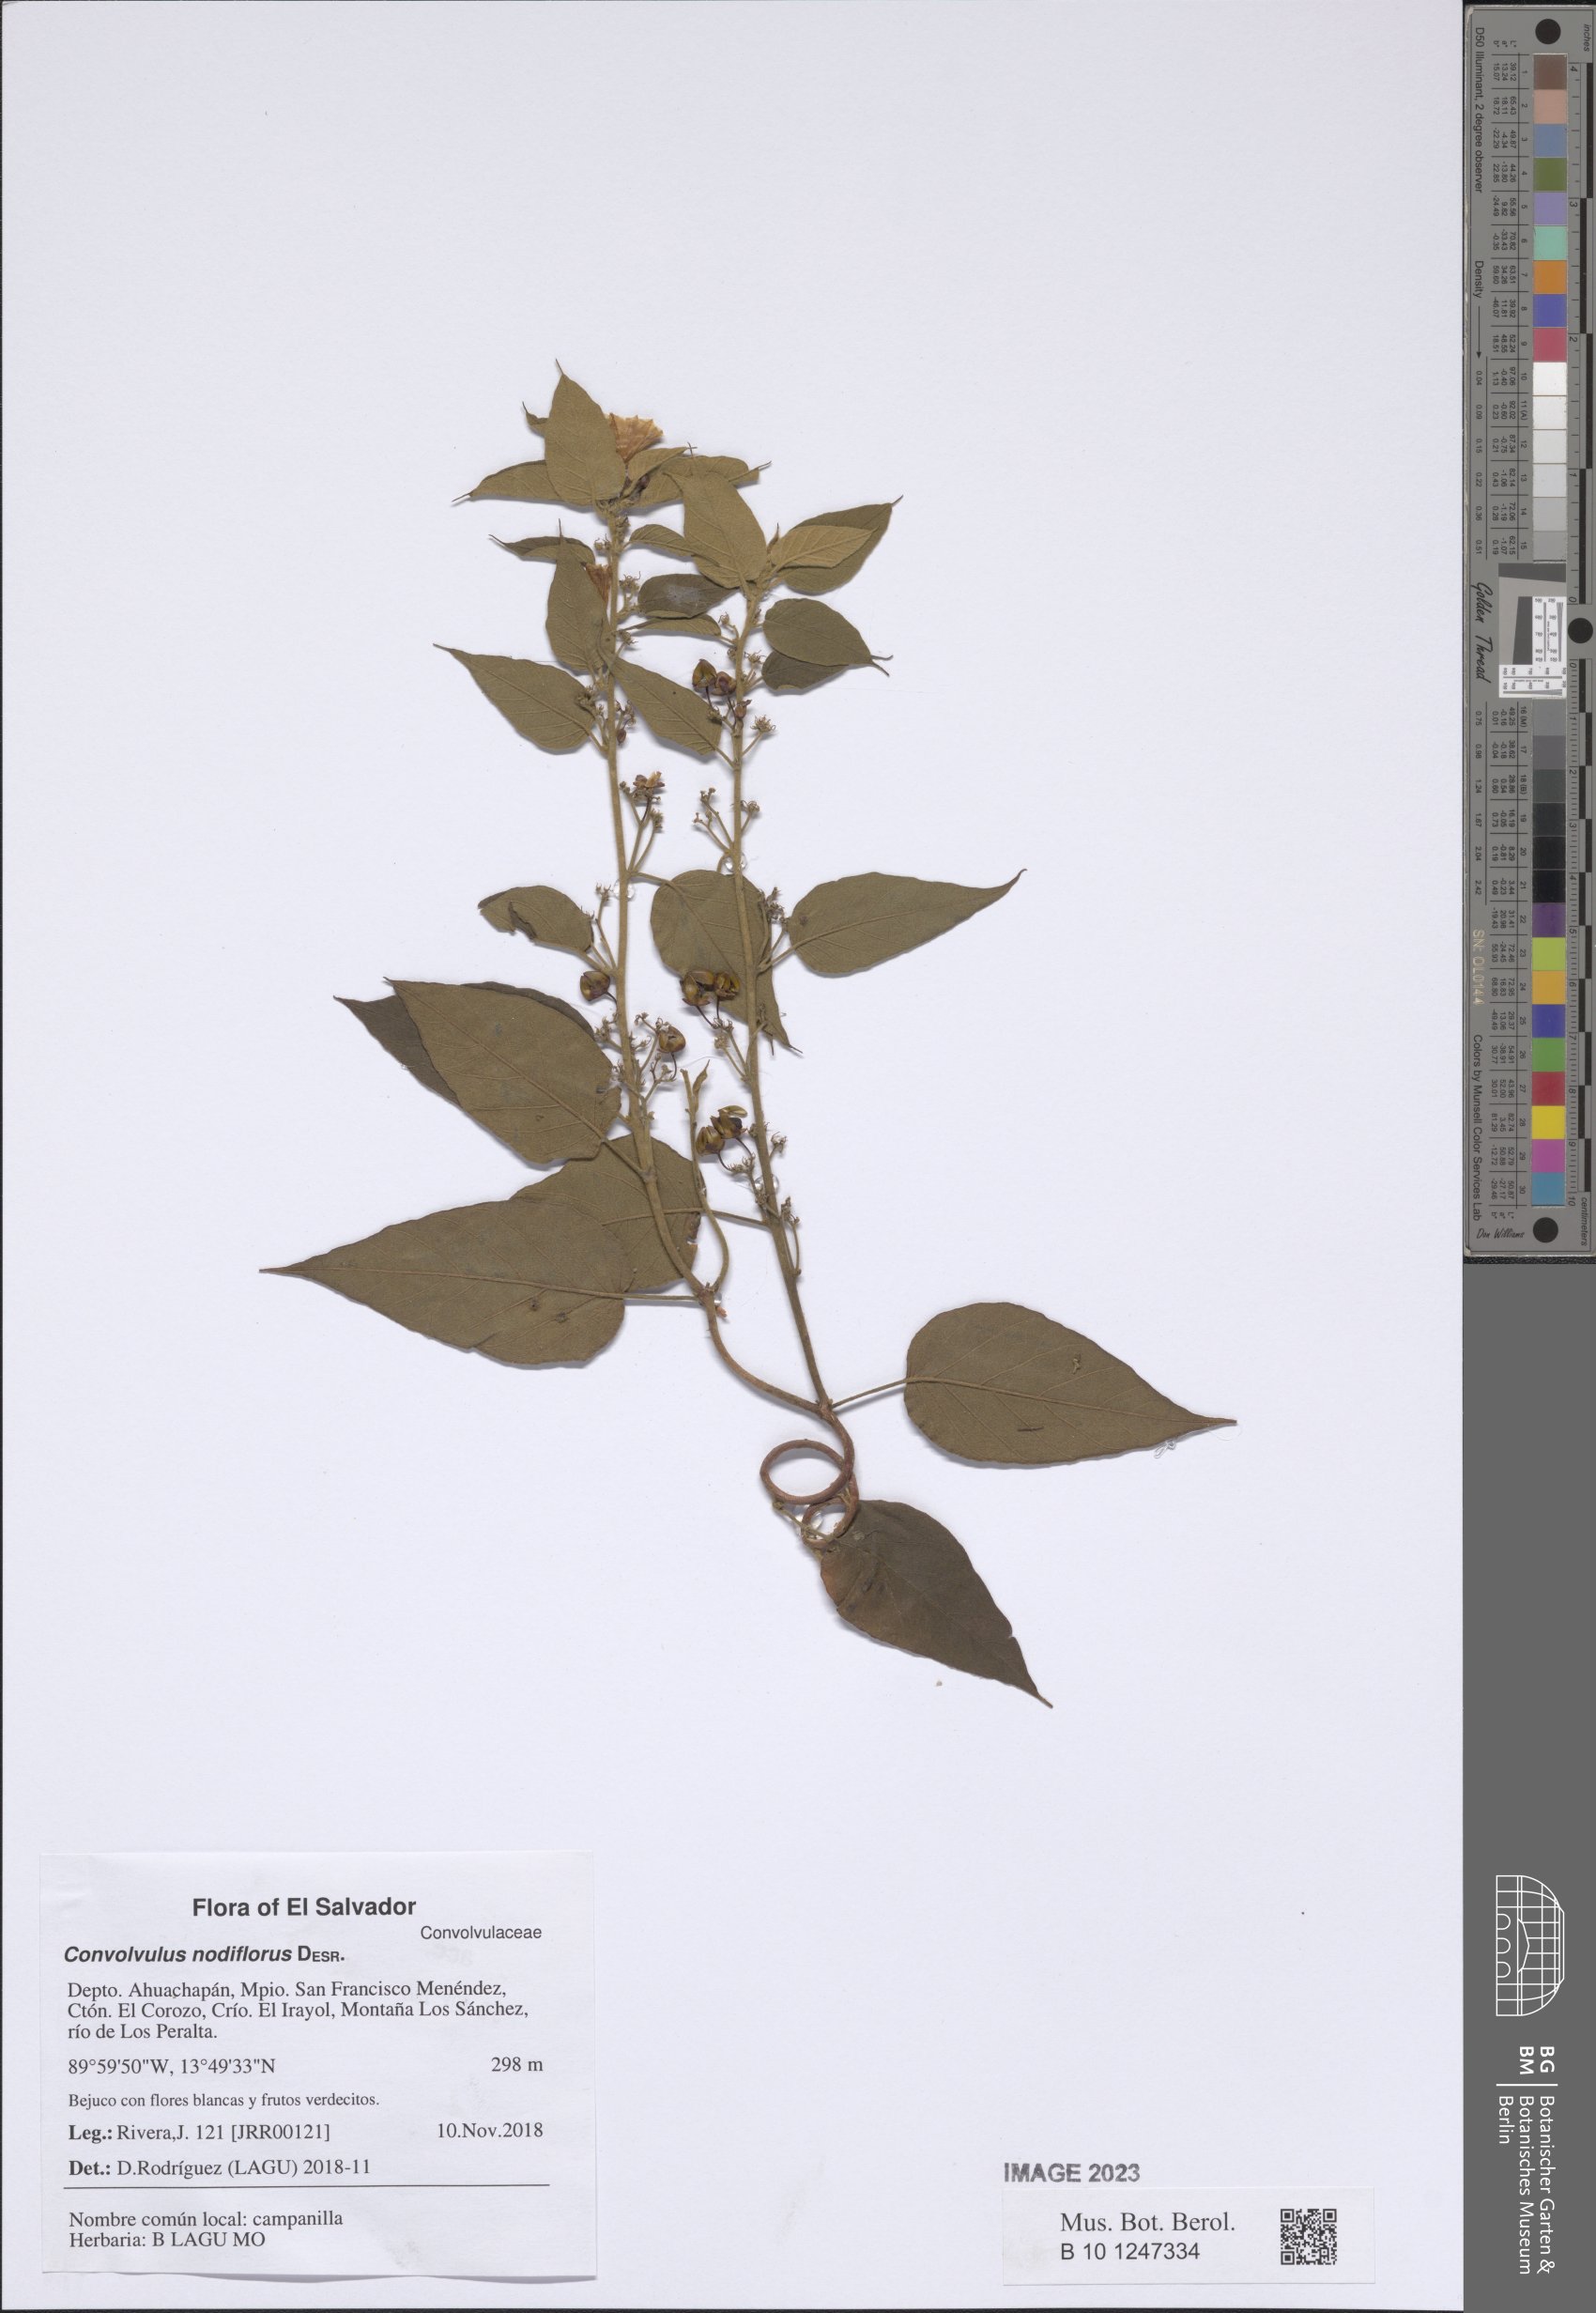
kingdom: Plantae
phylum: Tracheophyta
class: Magnoliopsida
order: Solanales
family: Convolvulaceae
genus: Jacquemontia
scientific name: Jacquemontia nodiflora
